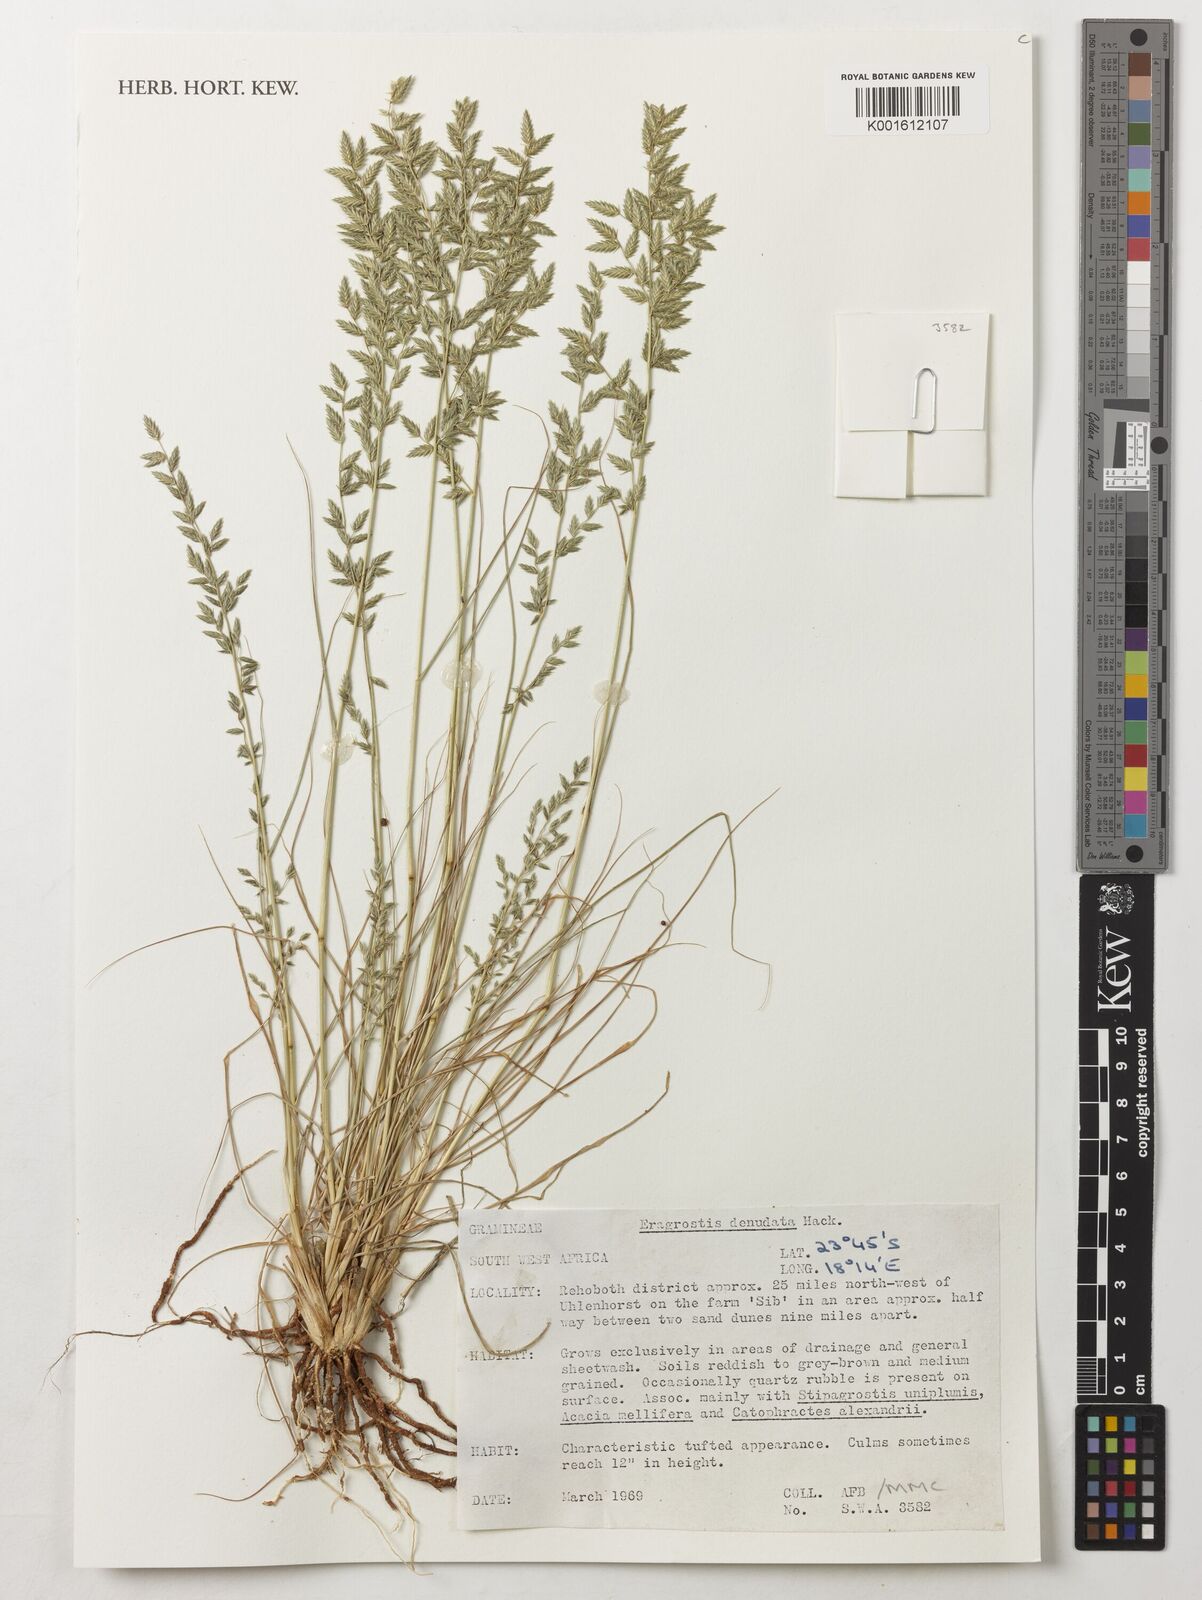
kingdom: Plantae
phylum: Tracheophyta
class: Liliopsida
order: Poales
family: Poaceae
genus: Eragrostis
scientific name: Eragrostis
